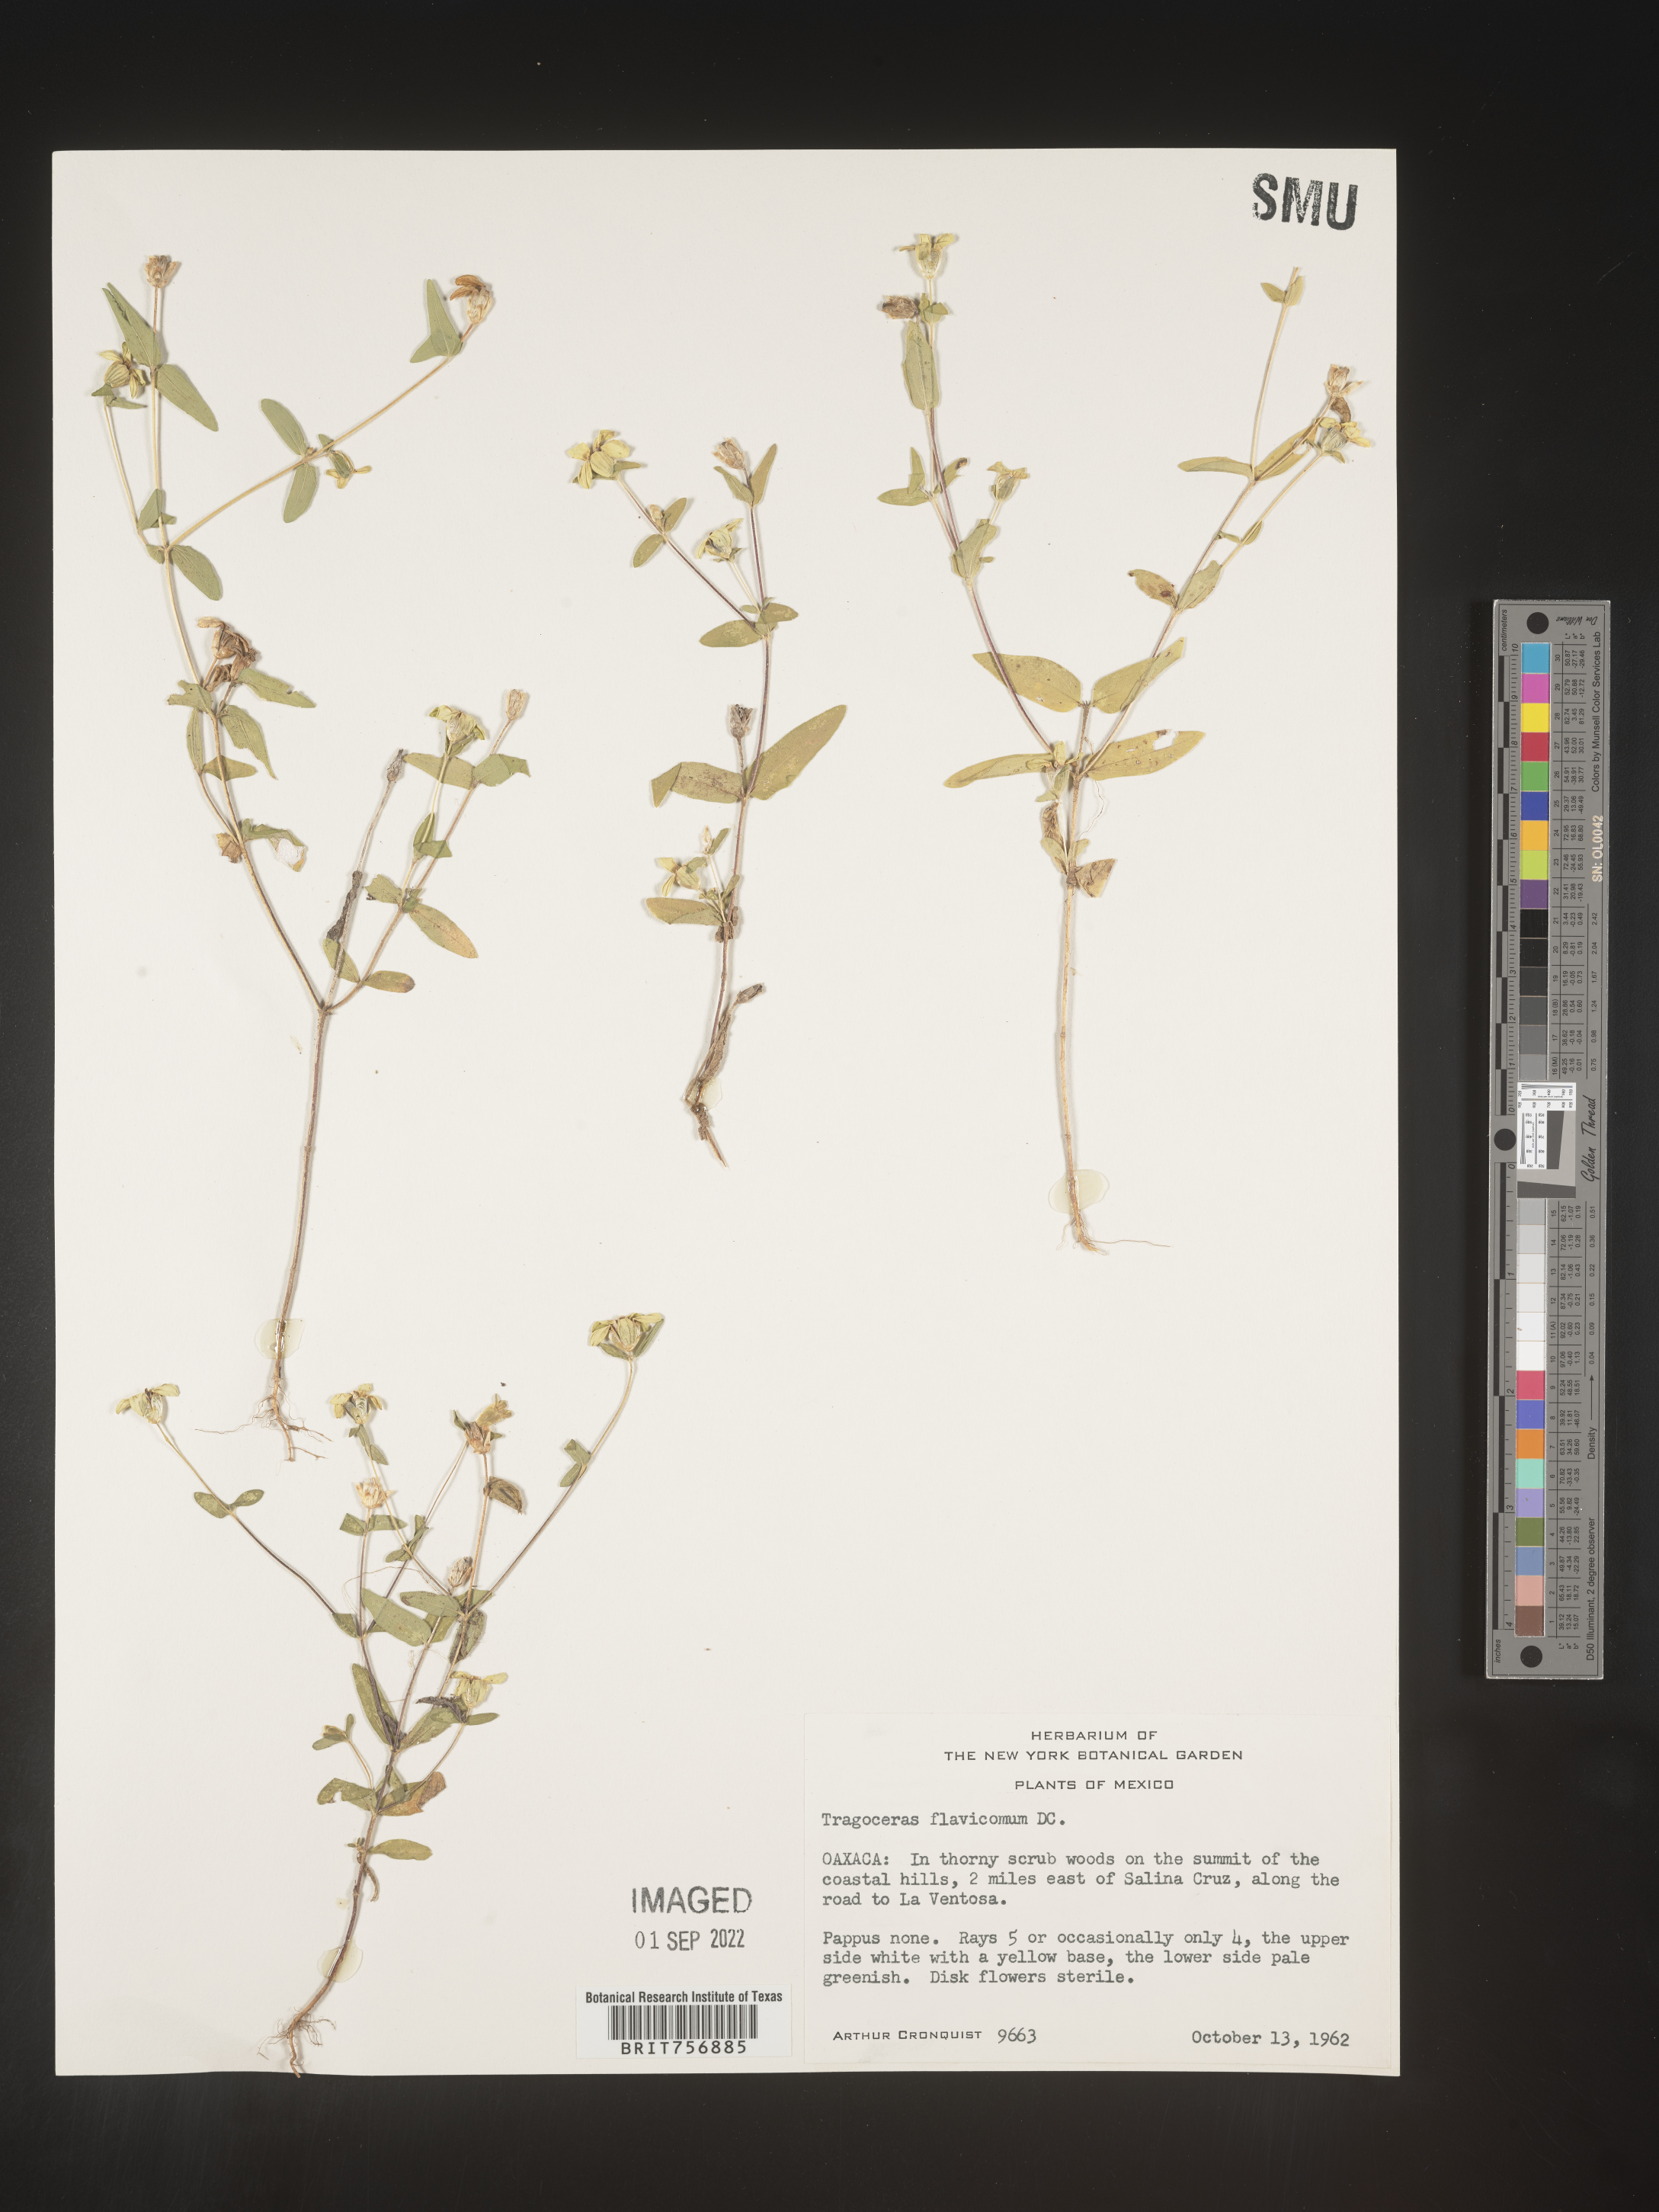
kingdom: Plantae
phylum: Tracheophyta
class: Magnoliopsida
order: Asterales
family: Asteraceae
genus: Zinnia
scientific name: Zinnia
